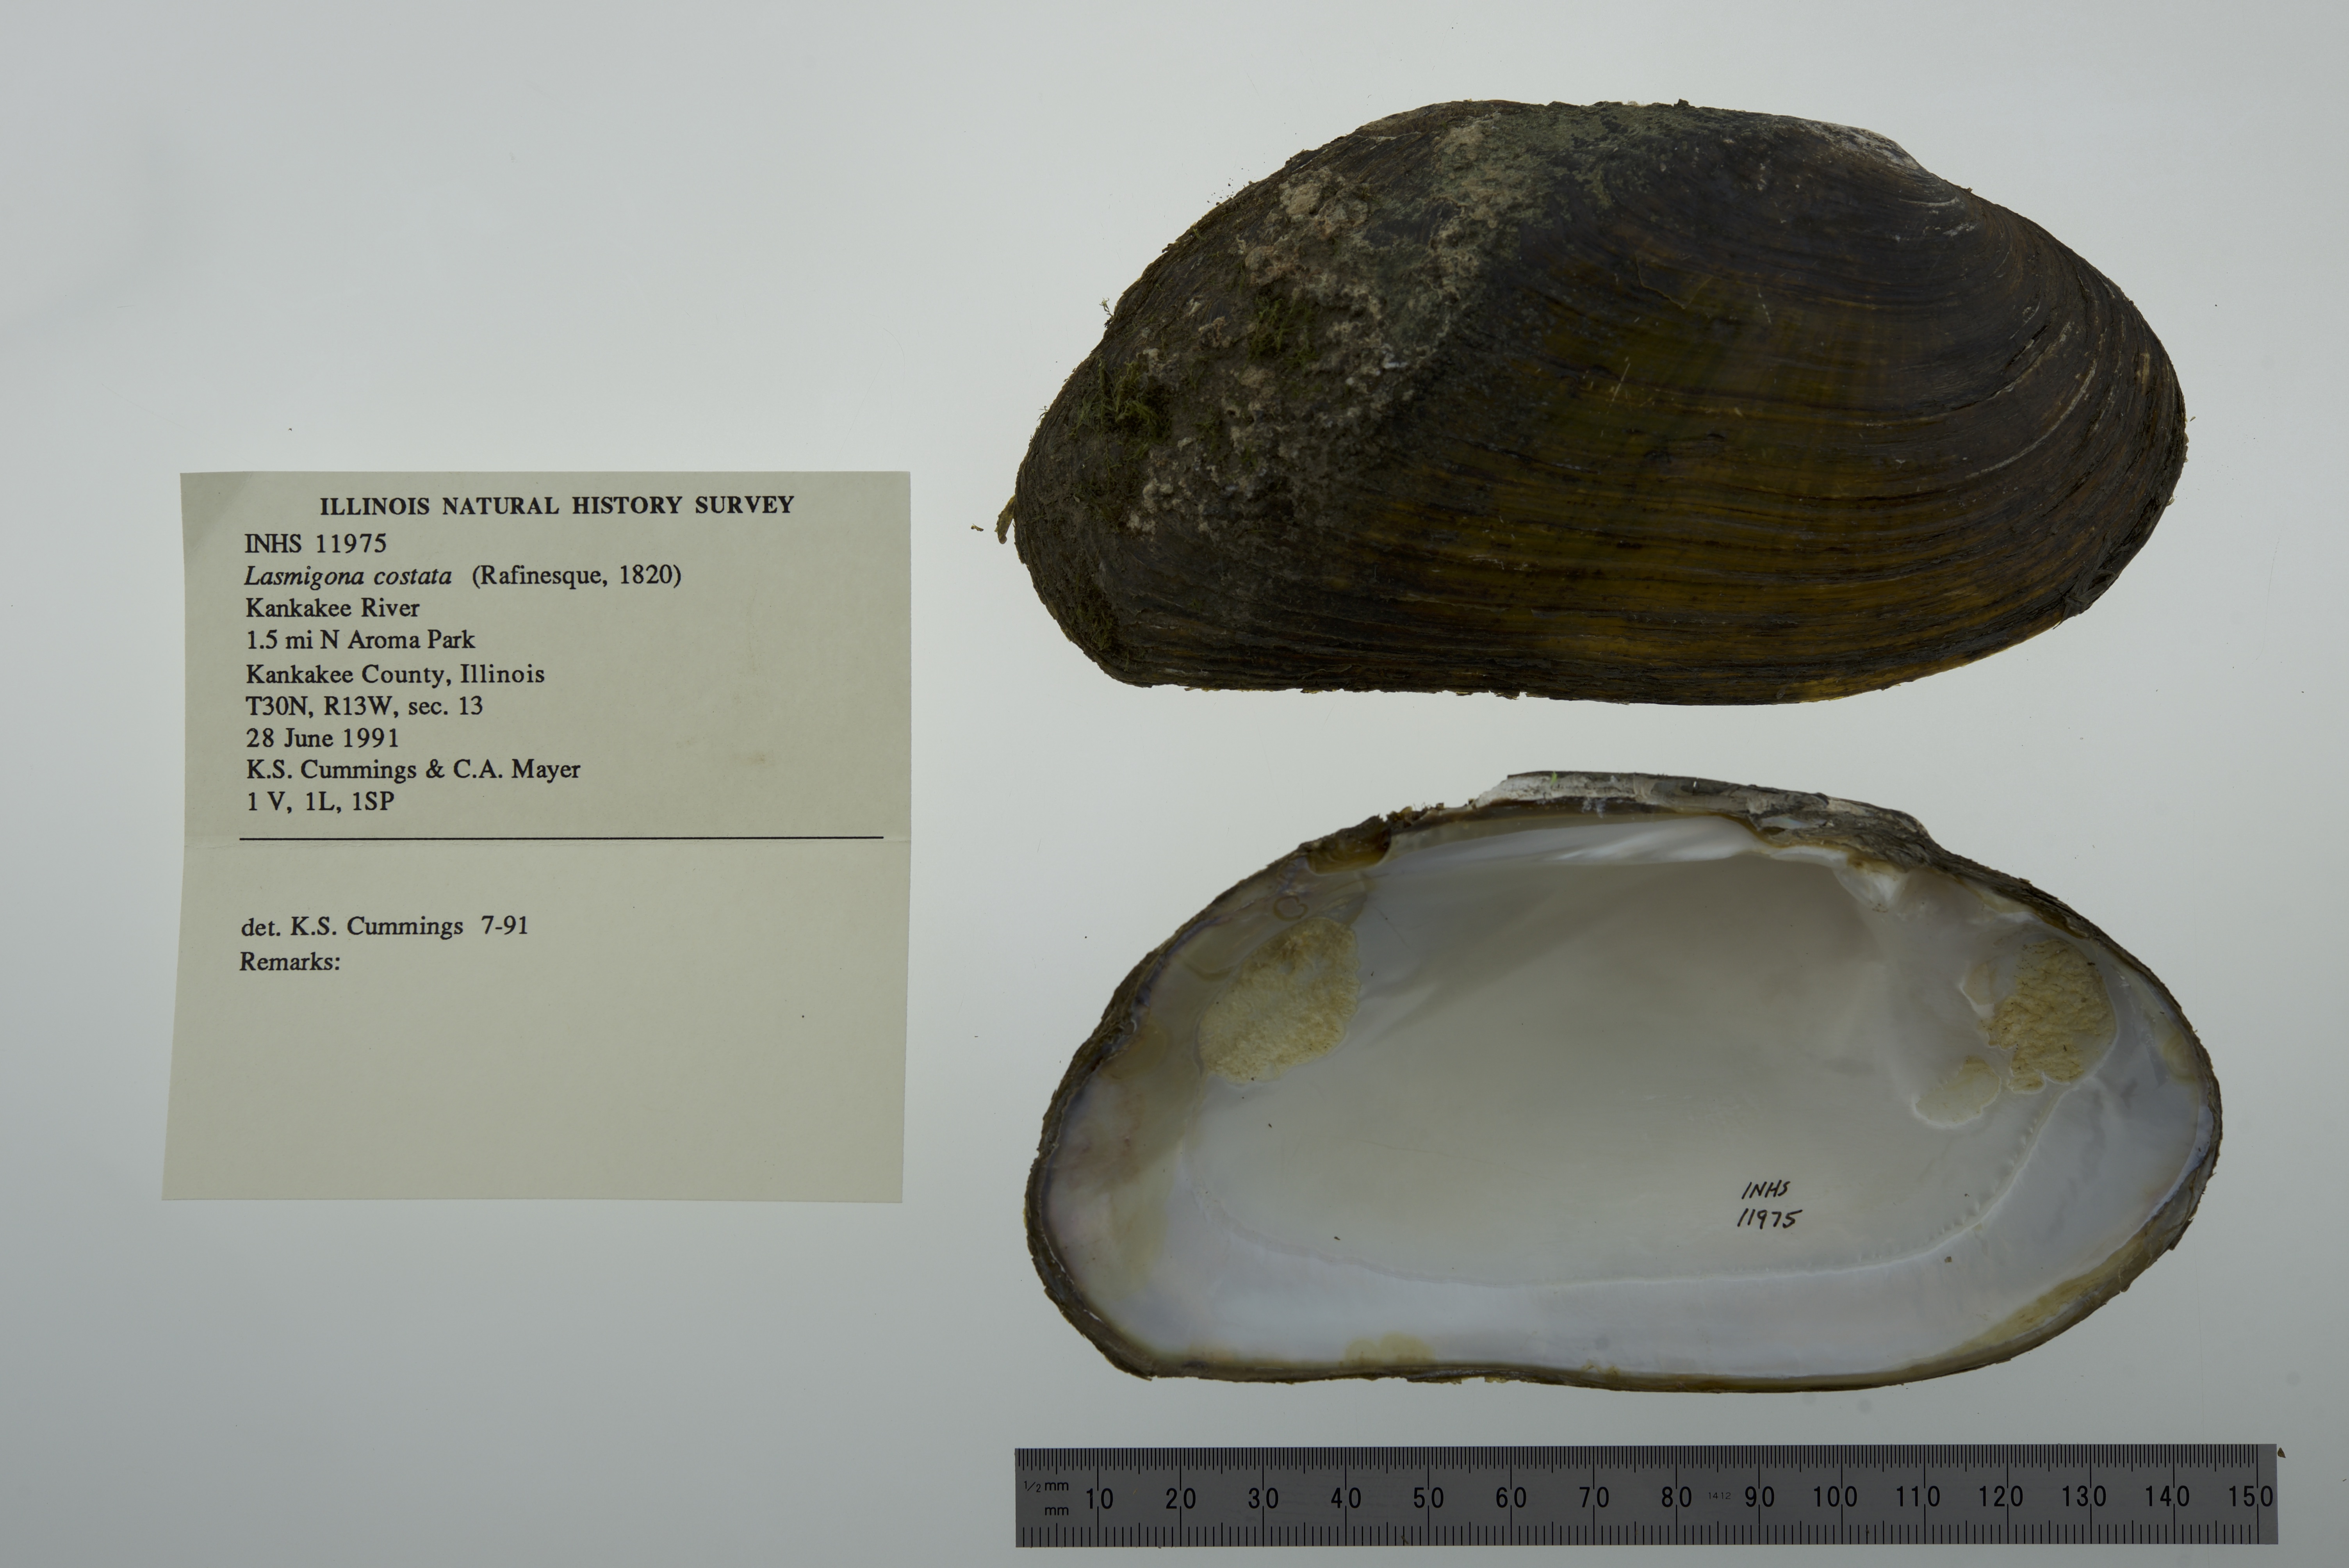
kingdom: Animalia
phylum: Mollusca
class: Bivalvia
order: Unionida
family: Unionidae
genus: Lasmigona
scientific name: Lasmigona costata
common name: Flutedshell
